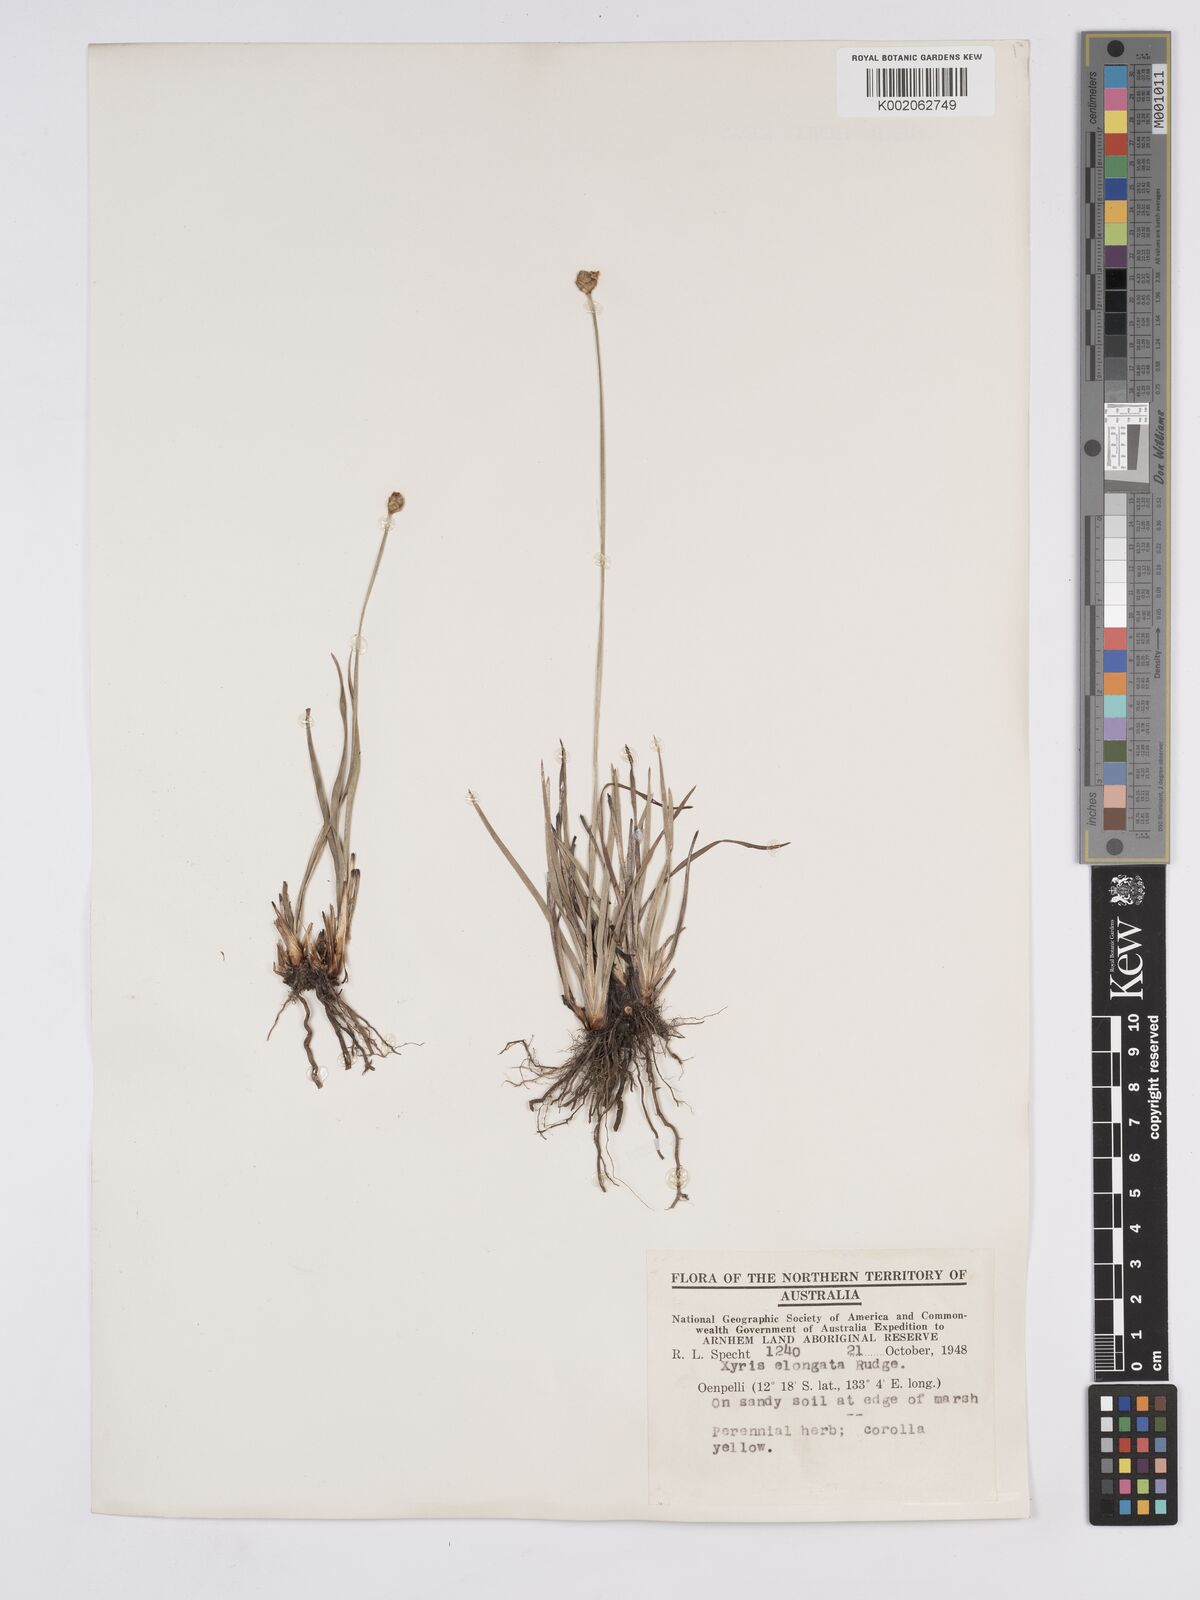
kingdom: Plantae
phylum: Tracheophyta
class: Liliopsida
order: Poales
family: Xyridaceae
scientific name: Xyridaceae
